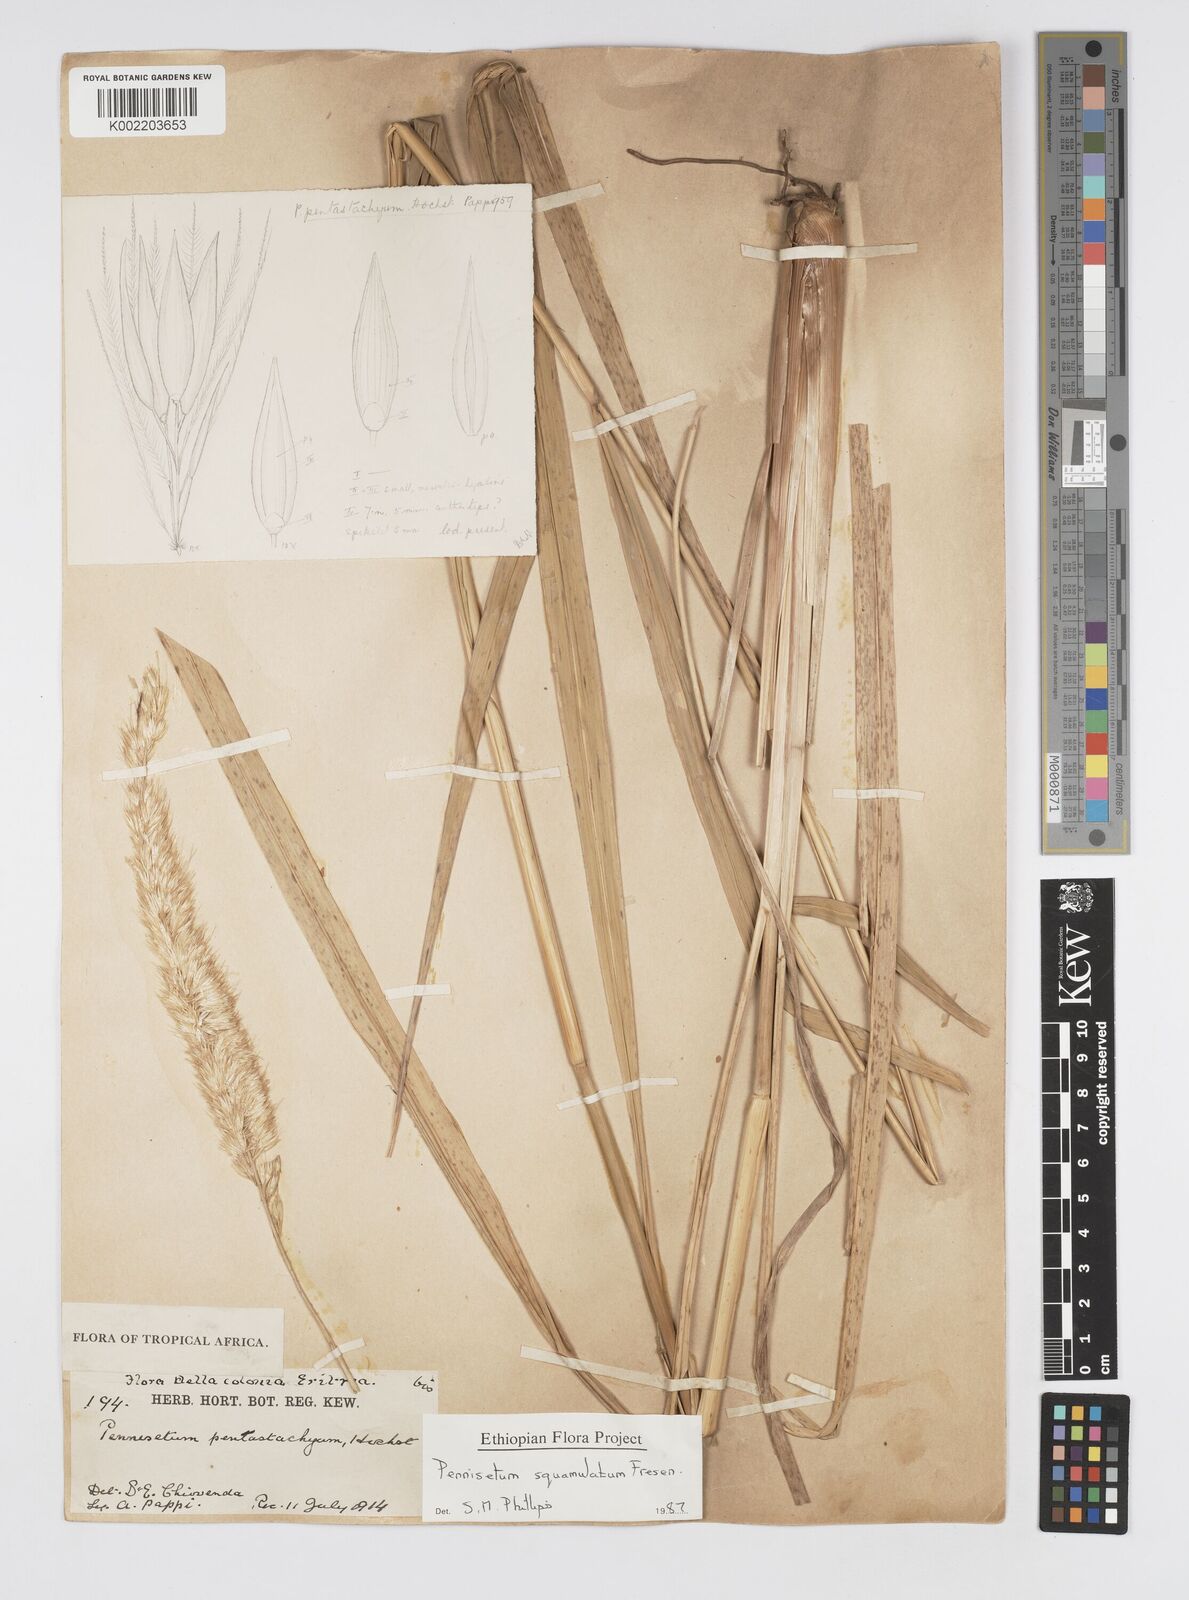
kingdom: Plantae
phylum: Tracheophyta
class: Liliopsida
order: Poales
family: Poaceae
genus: Cenchrus
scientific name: Cenchrus squamulatus
